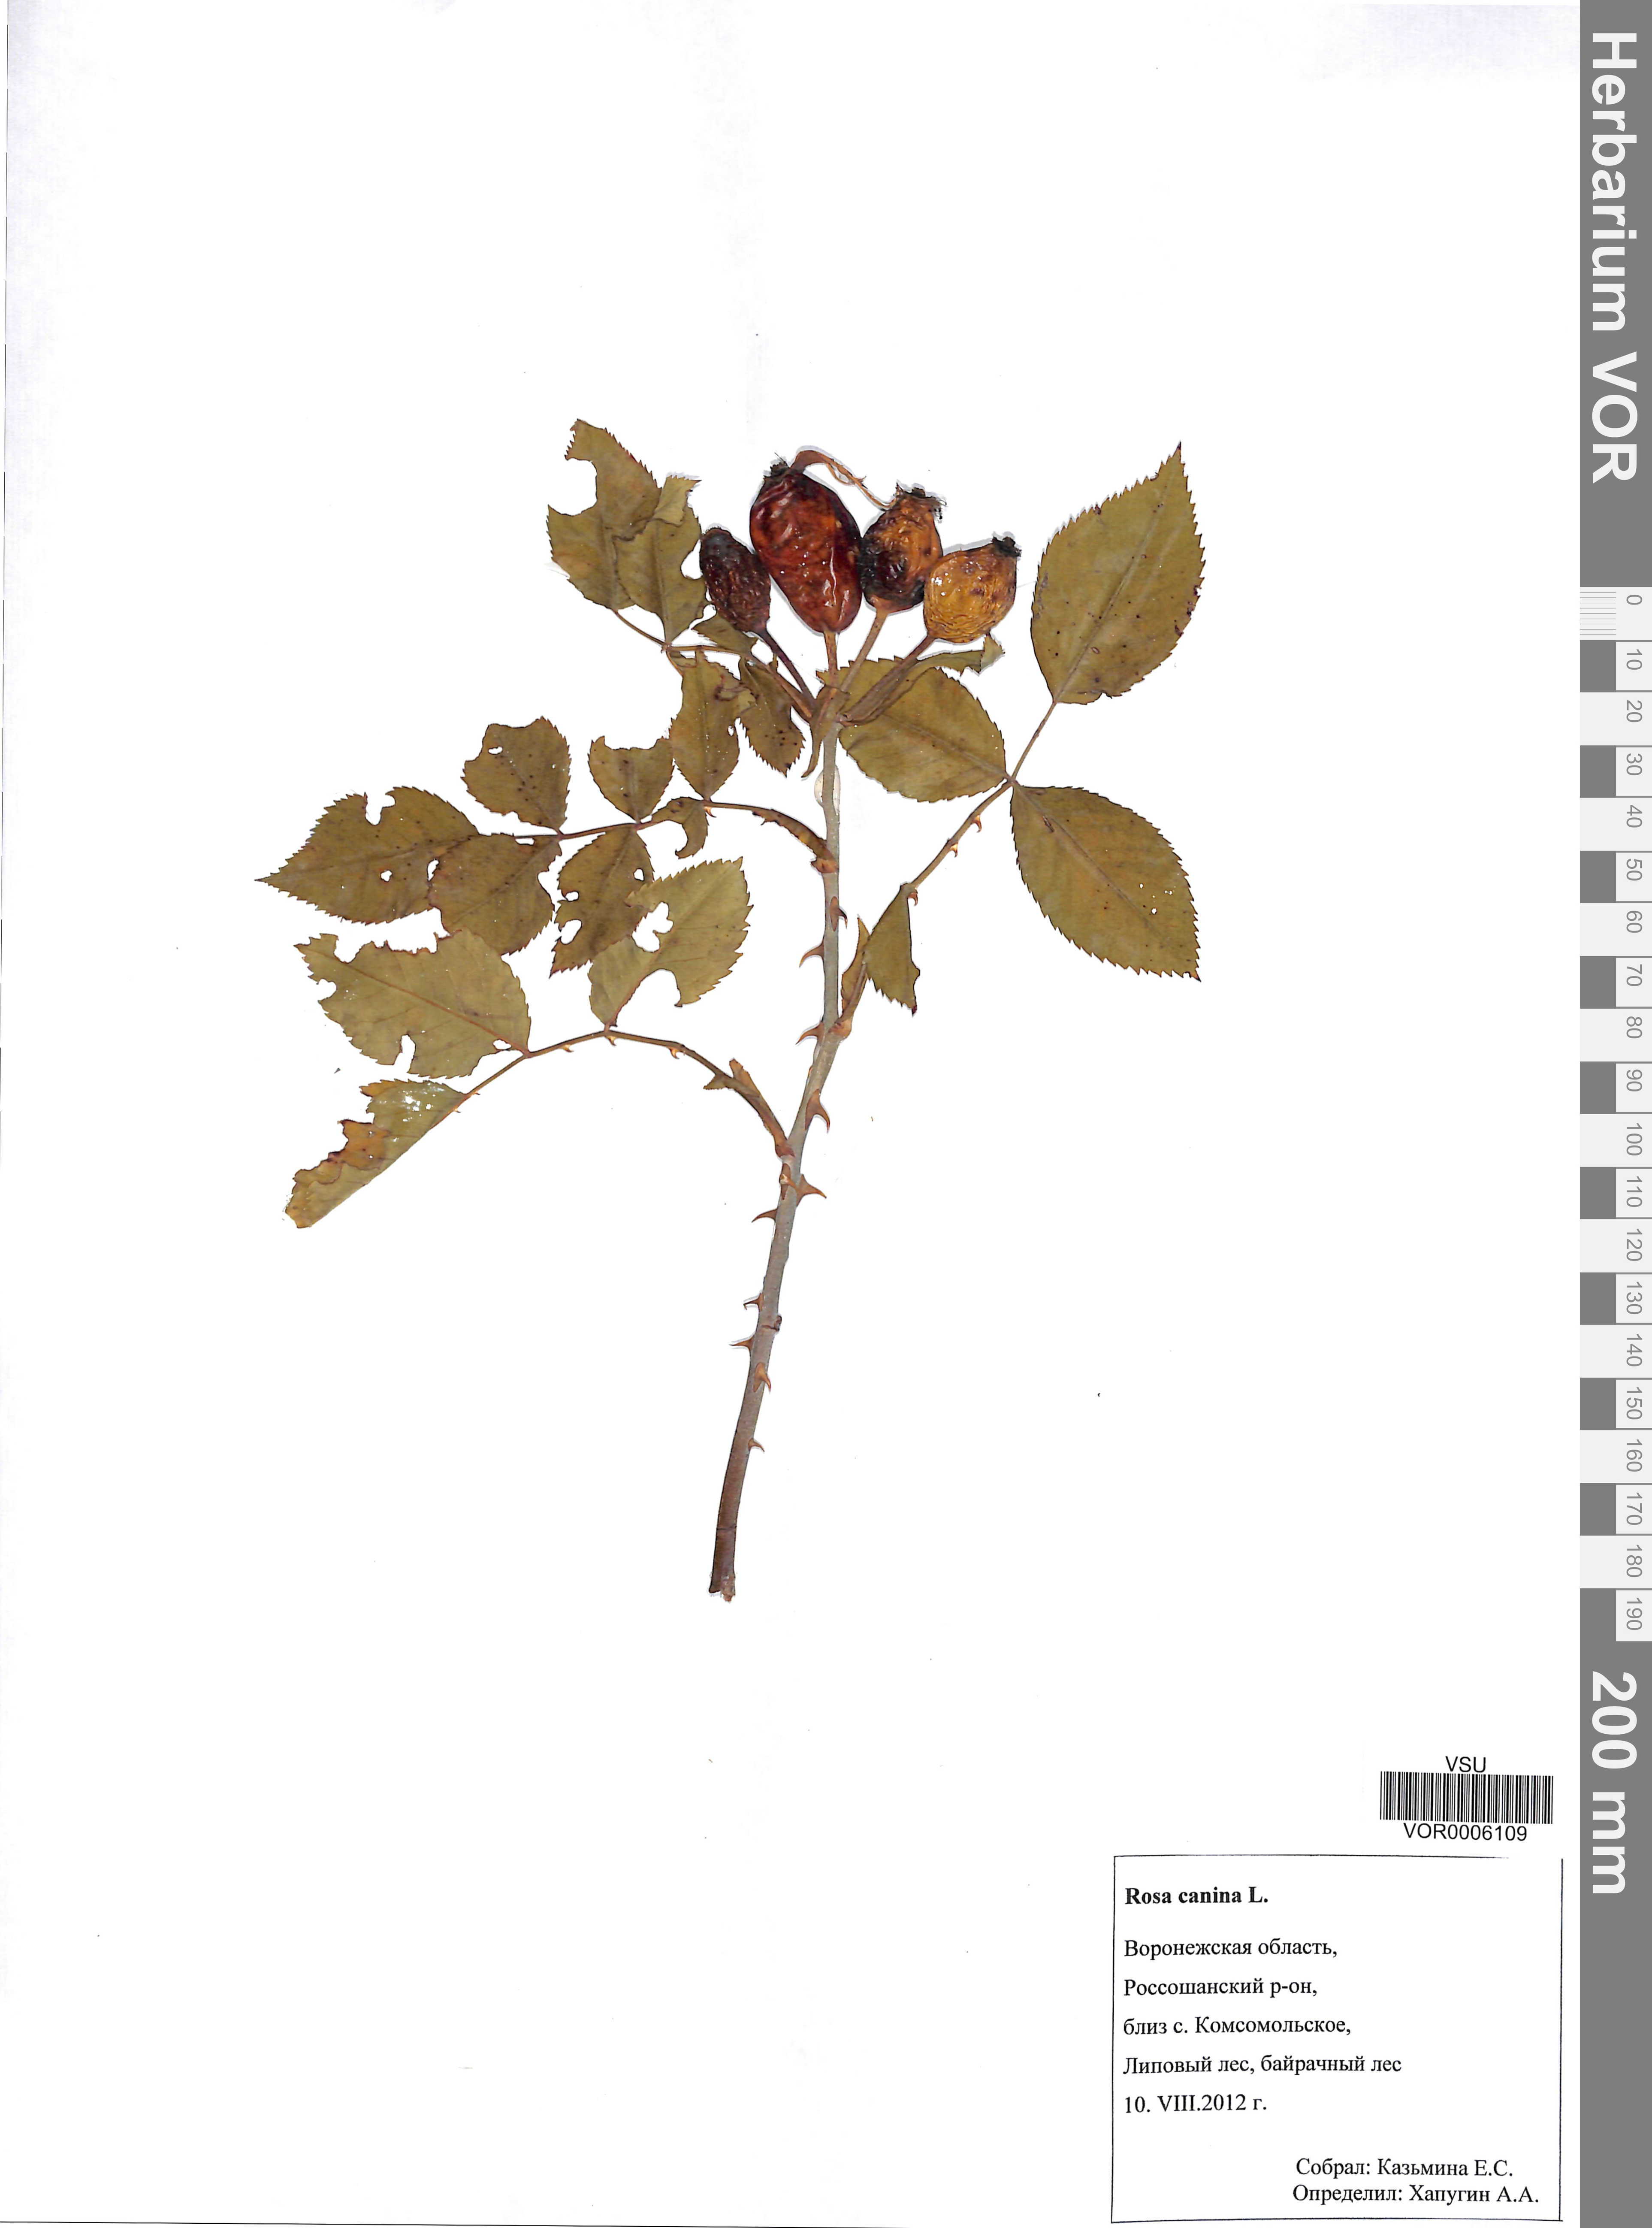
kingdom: Plantae
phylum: Tracheophyta
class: Magnoliopsida
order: Rosales
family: Rosaceae
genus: Rosa
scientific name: Rosa canina
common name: Dog rose
